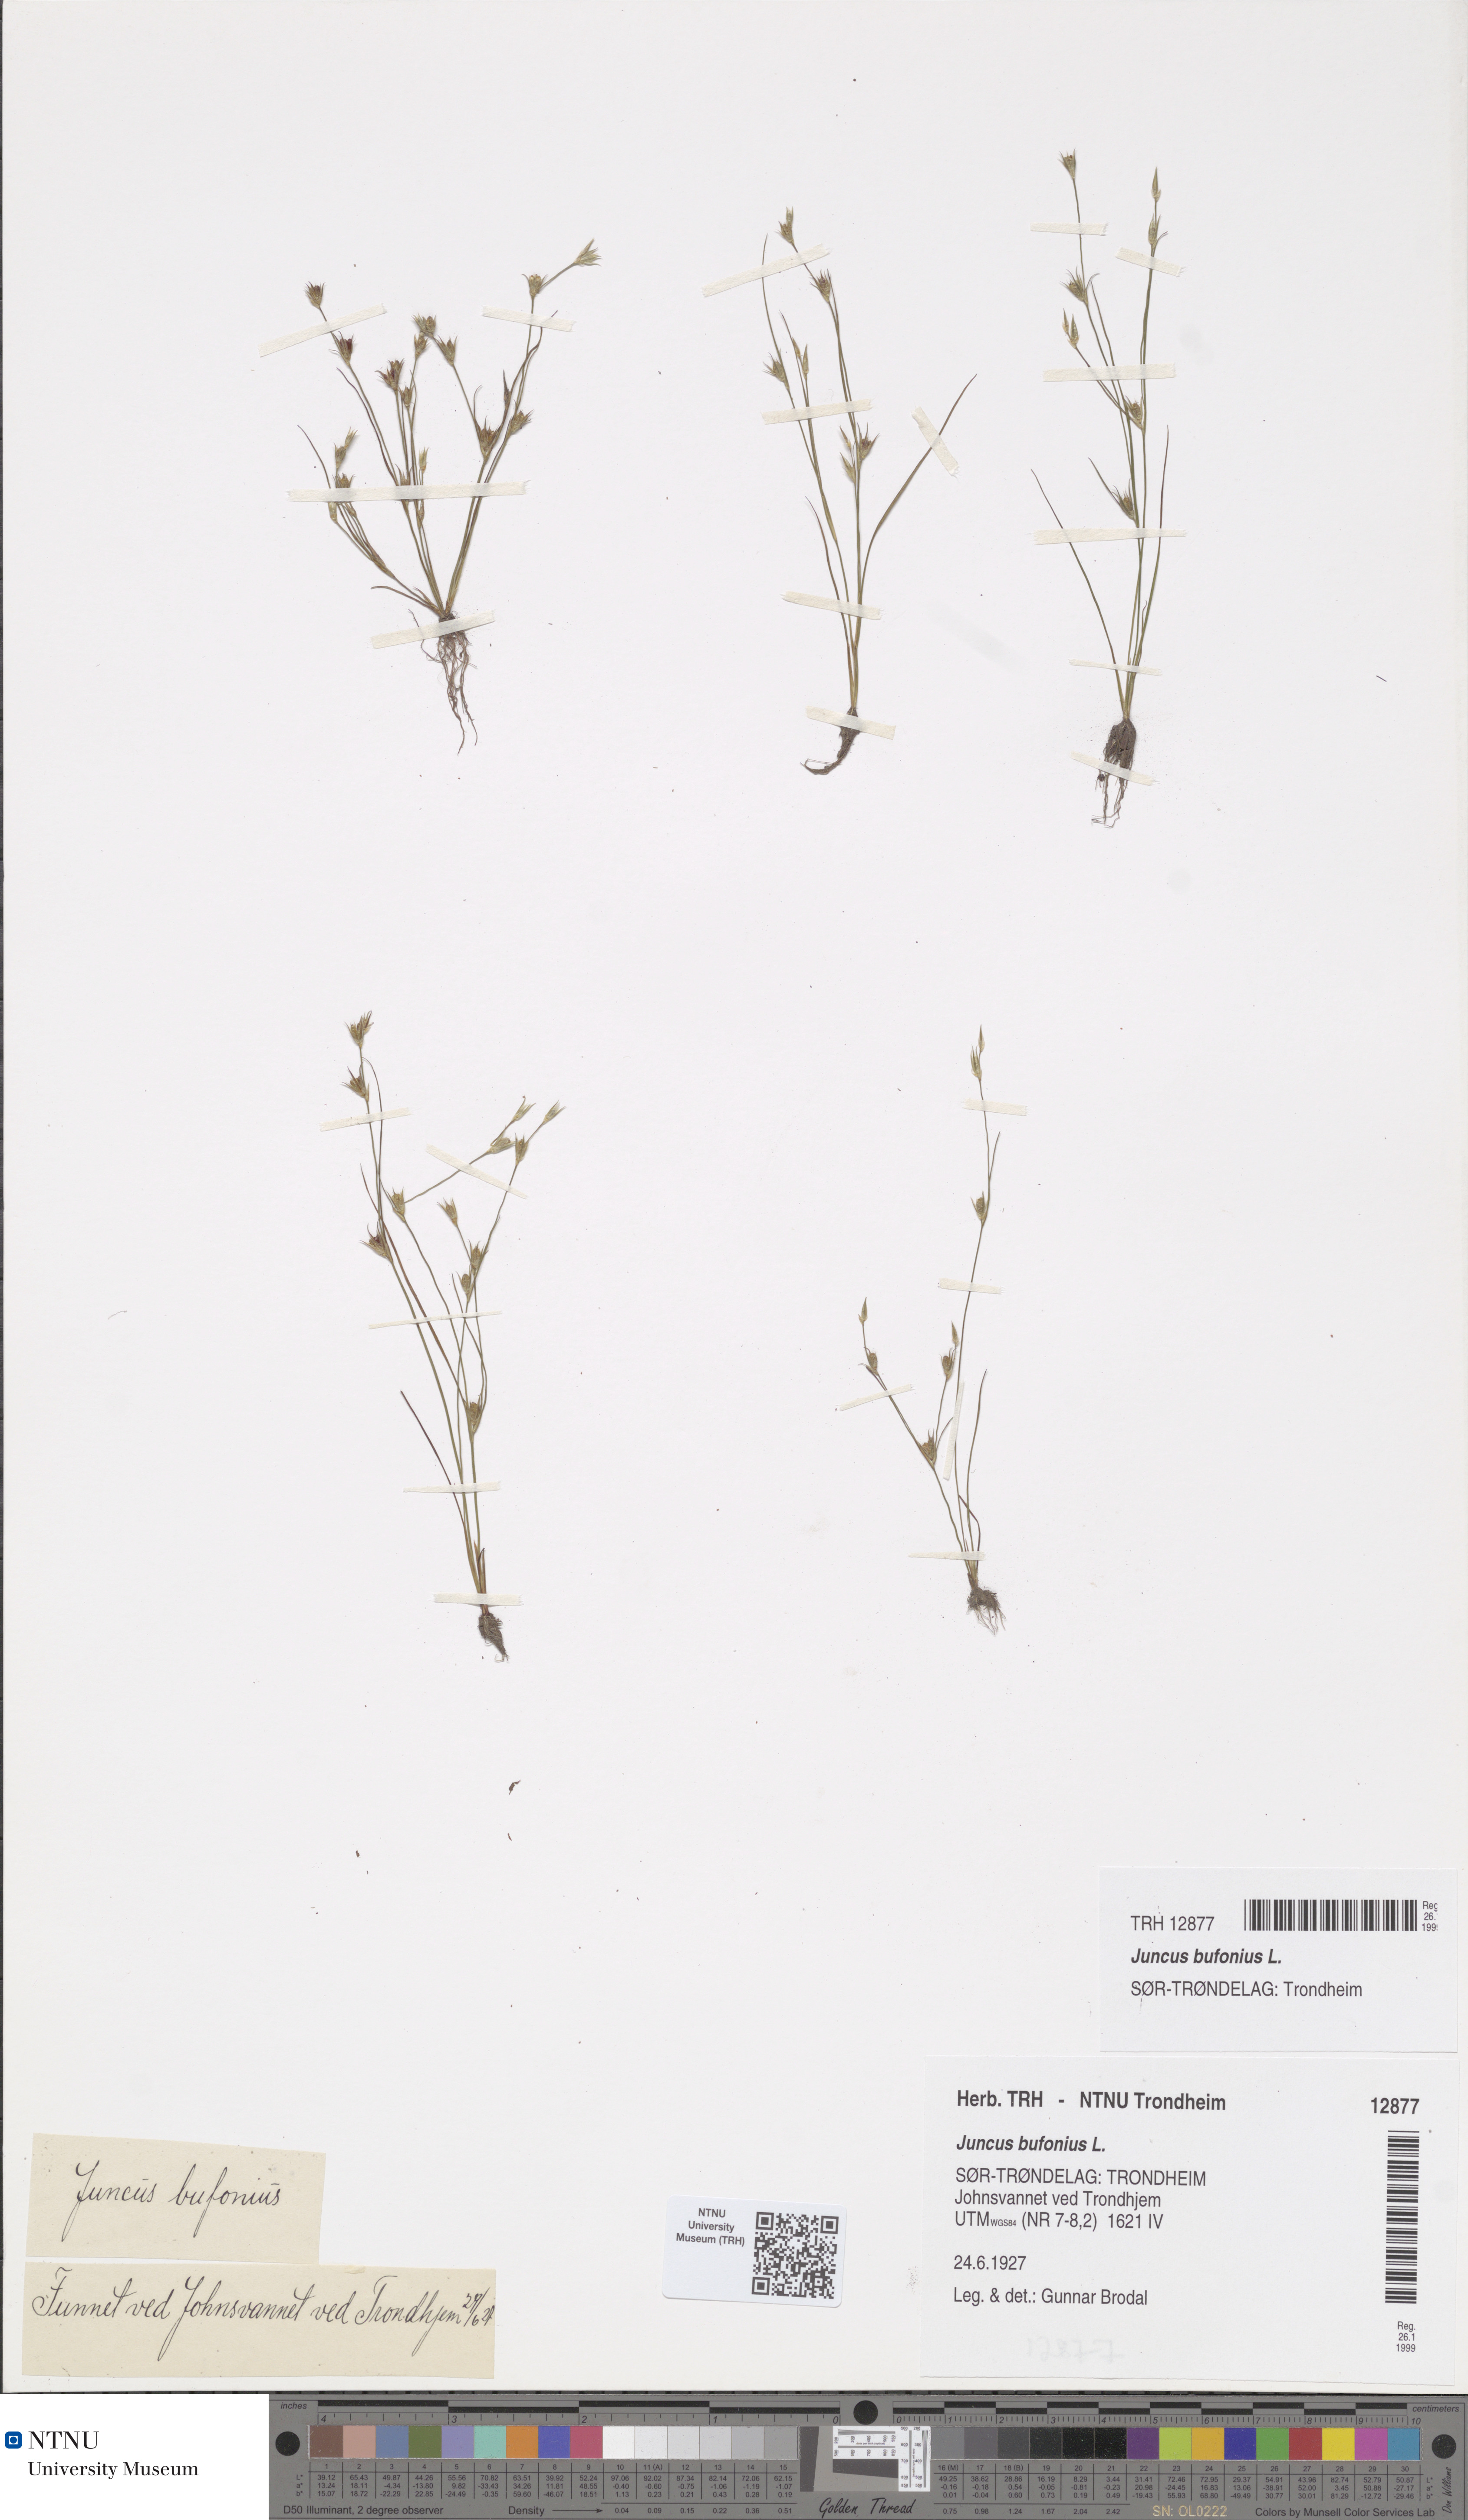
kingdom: Plantae
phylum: Tracheophyta
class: Liliopsida
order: Poales
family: Juncaceae
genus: Juncus
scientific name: Juncus bufonius
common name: Toad rush
